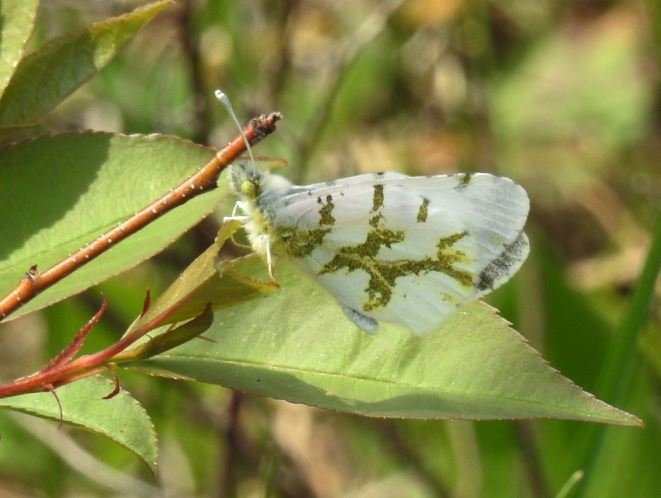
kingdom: Animalia
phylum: Arthropoda
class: Insecta
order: Lepidoptera
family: Pieridae
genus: Euchloe
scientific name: Euchloe olympia
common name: Olympia Marble
